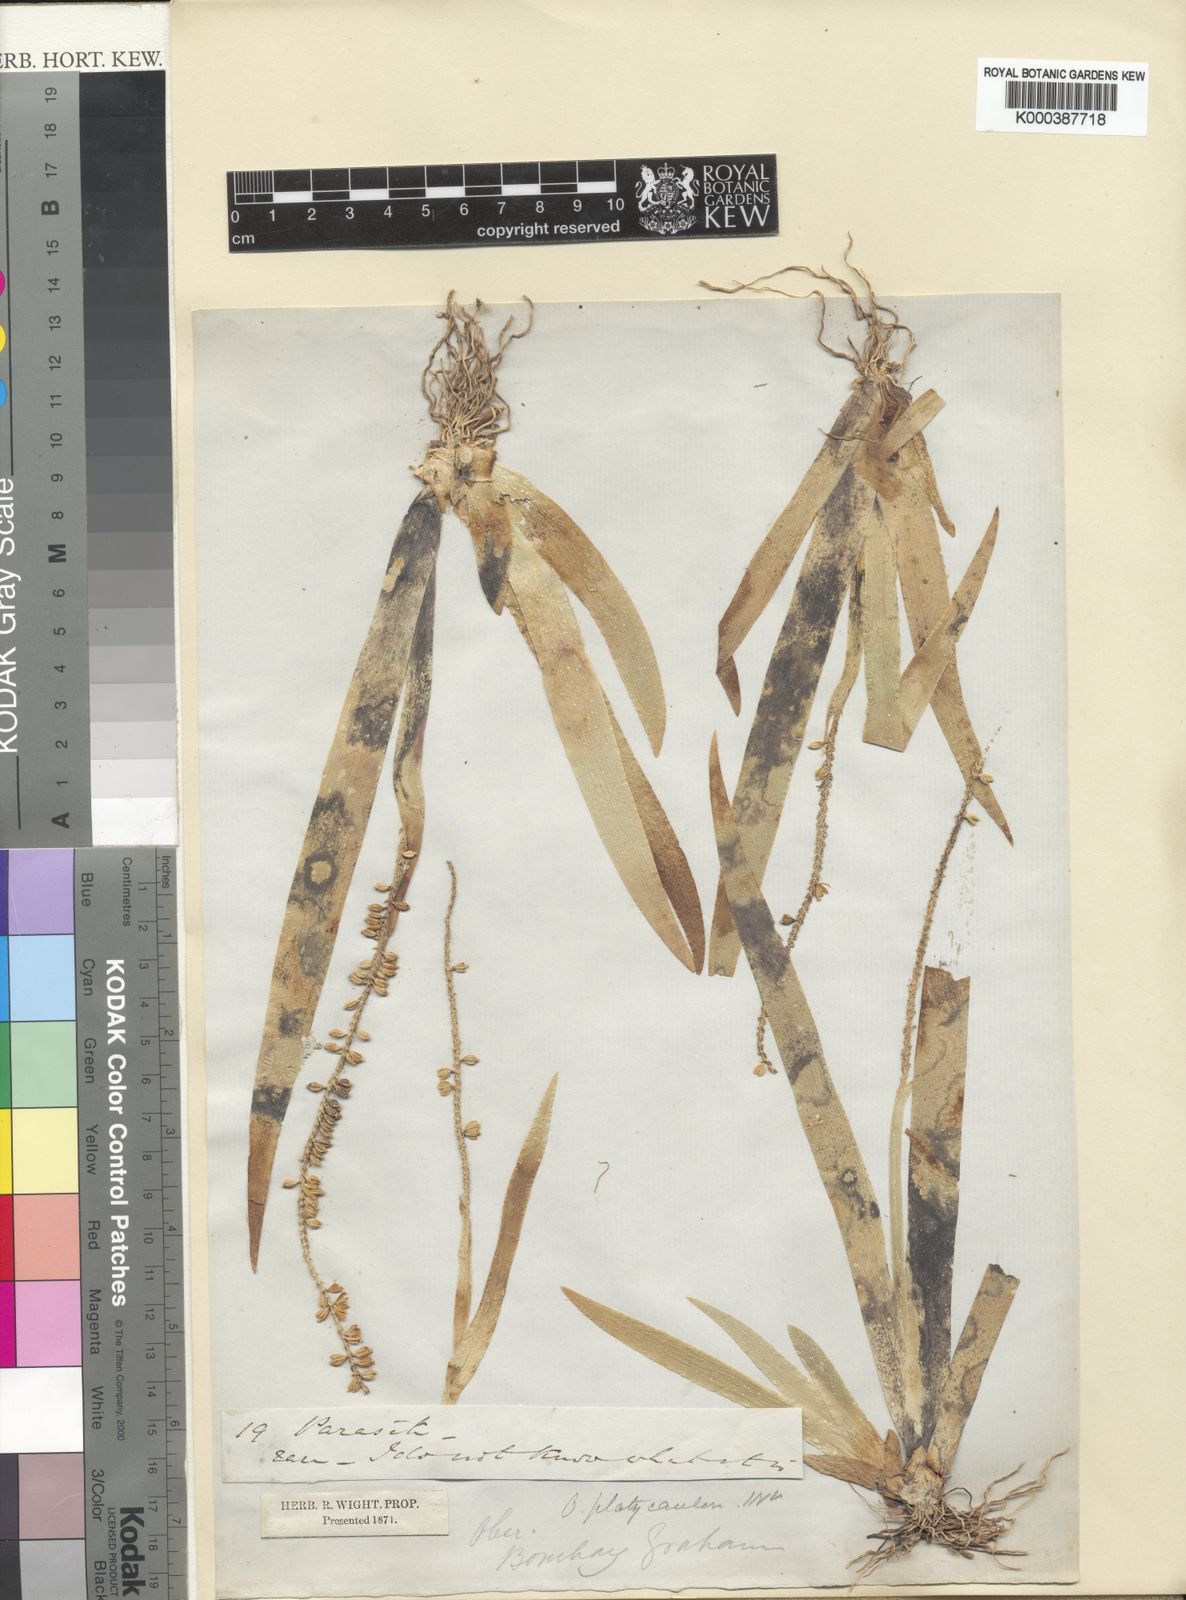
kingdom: Plantae
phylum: Tracheophyta
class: Liliopsida
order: Asparagales
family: Orchidaceae
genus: Oberonia
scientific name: Oberonia platycaulon
